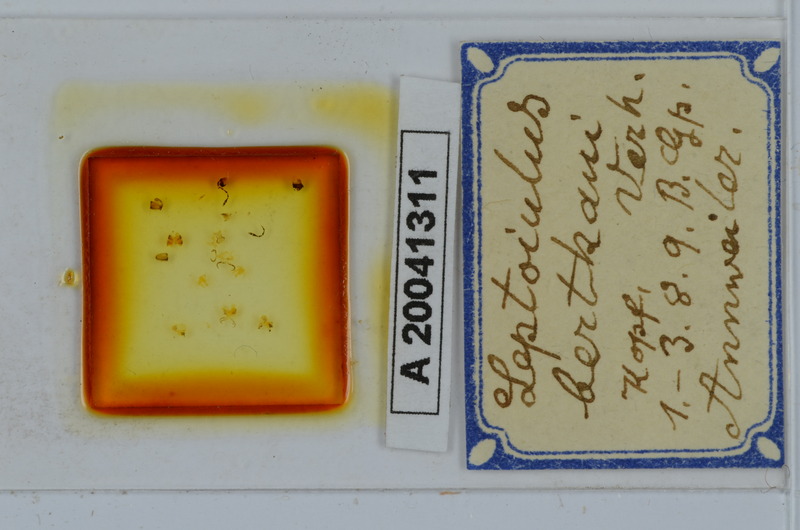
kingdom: Animalia
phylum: Arthropoda
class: Diplopoda
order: Julida
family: Julidae
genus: Leptoiulus
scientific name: Leptoiulus bertkaui
